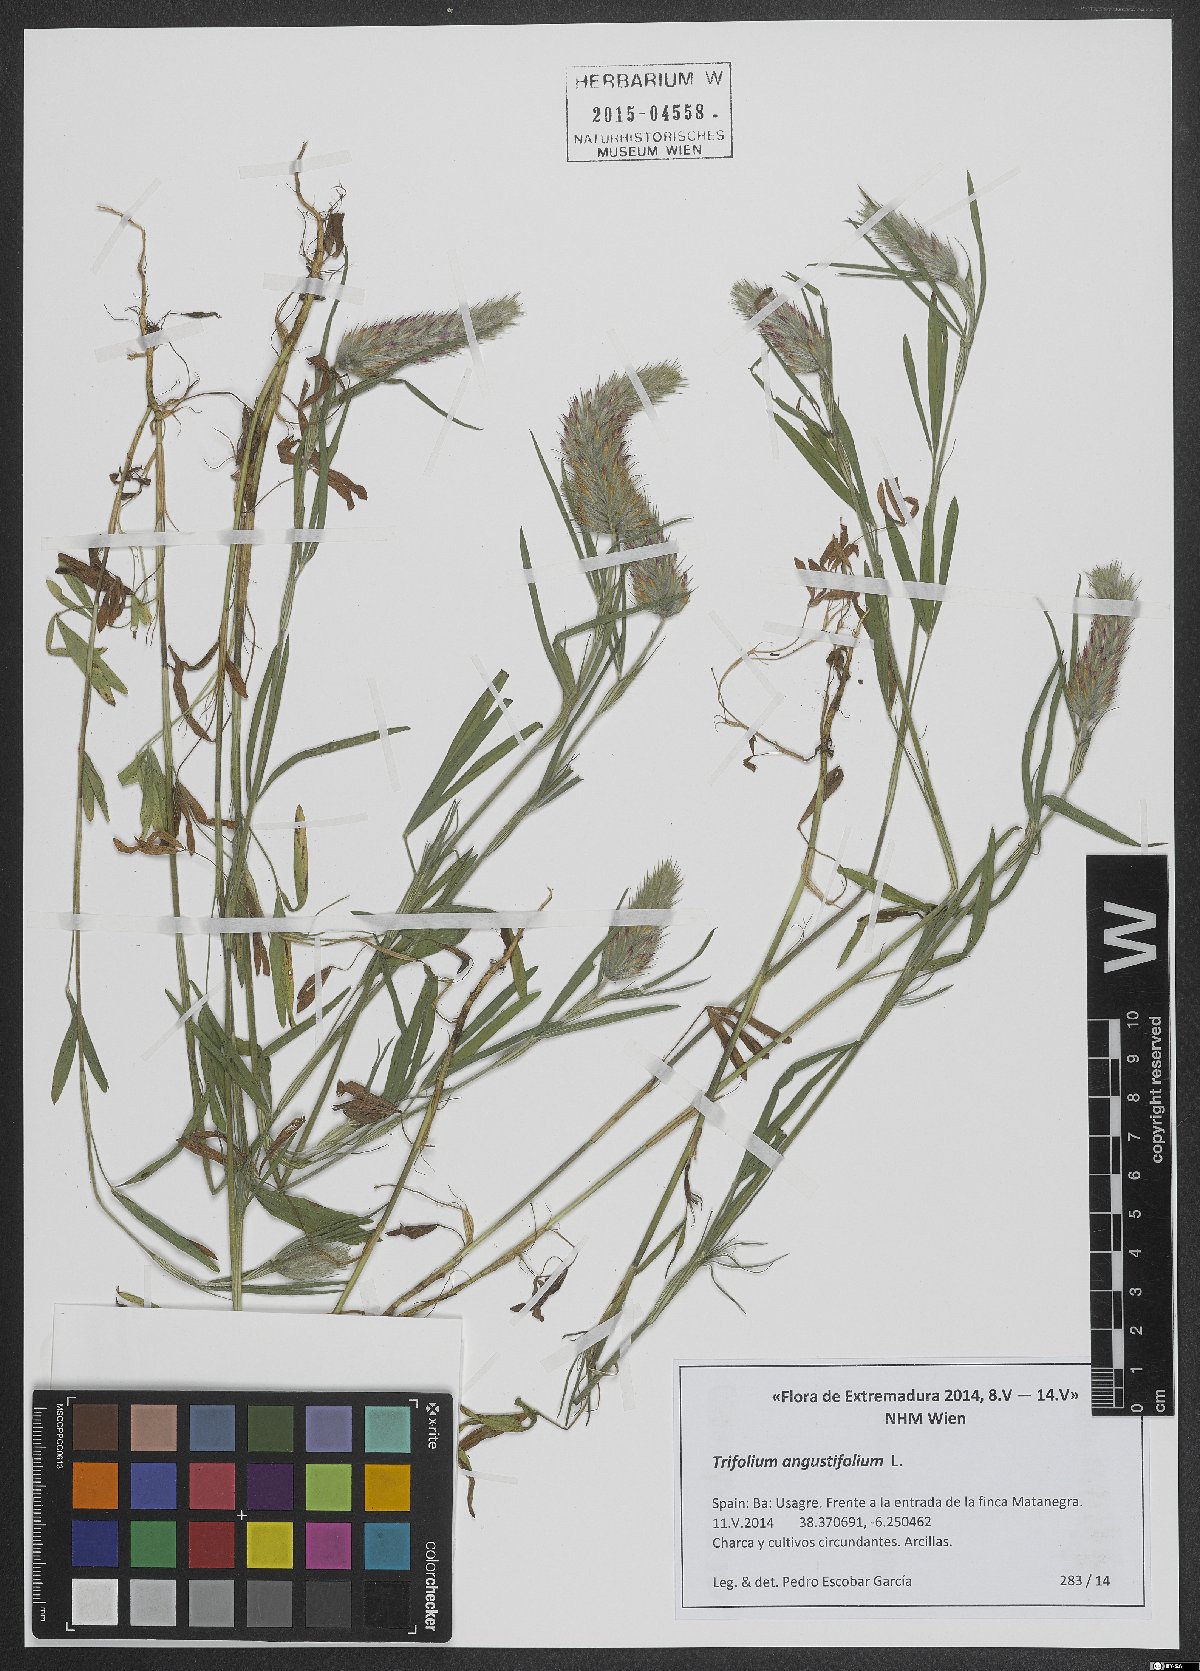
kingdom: Plantae
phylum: Tracheophyta
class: Magnoliopsida
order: Fabales
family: Fabaceae
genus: Trifolium
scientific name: Trifolium angustifolium
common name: Narrow clover
